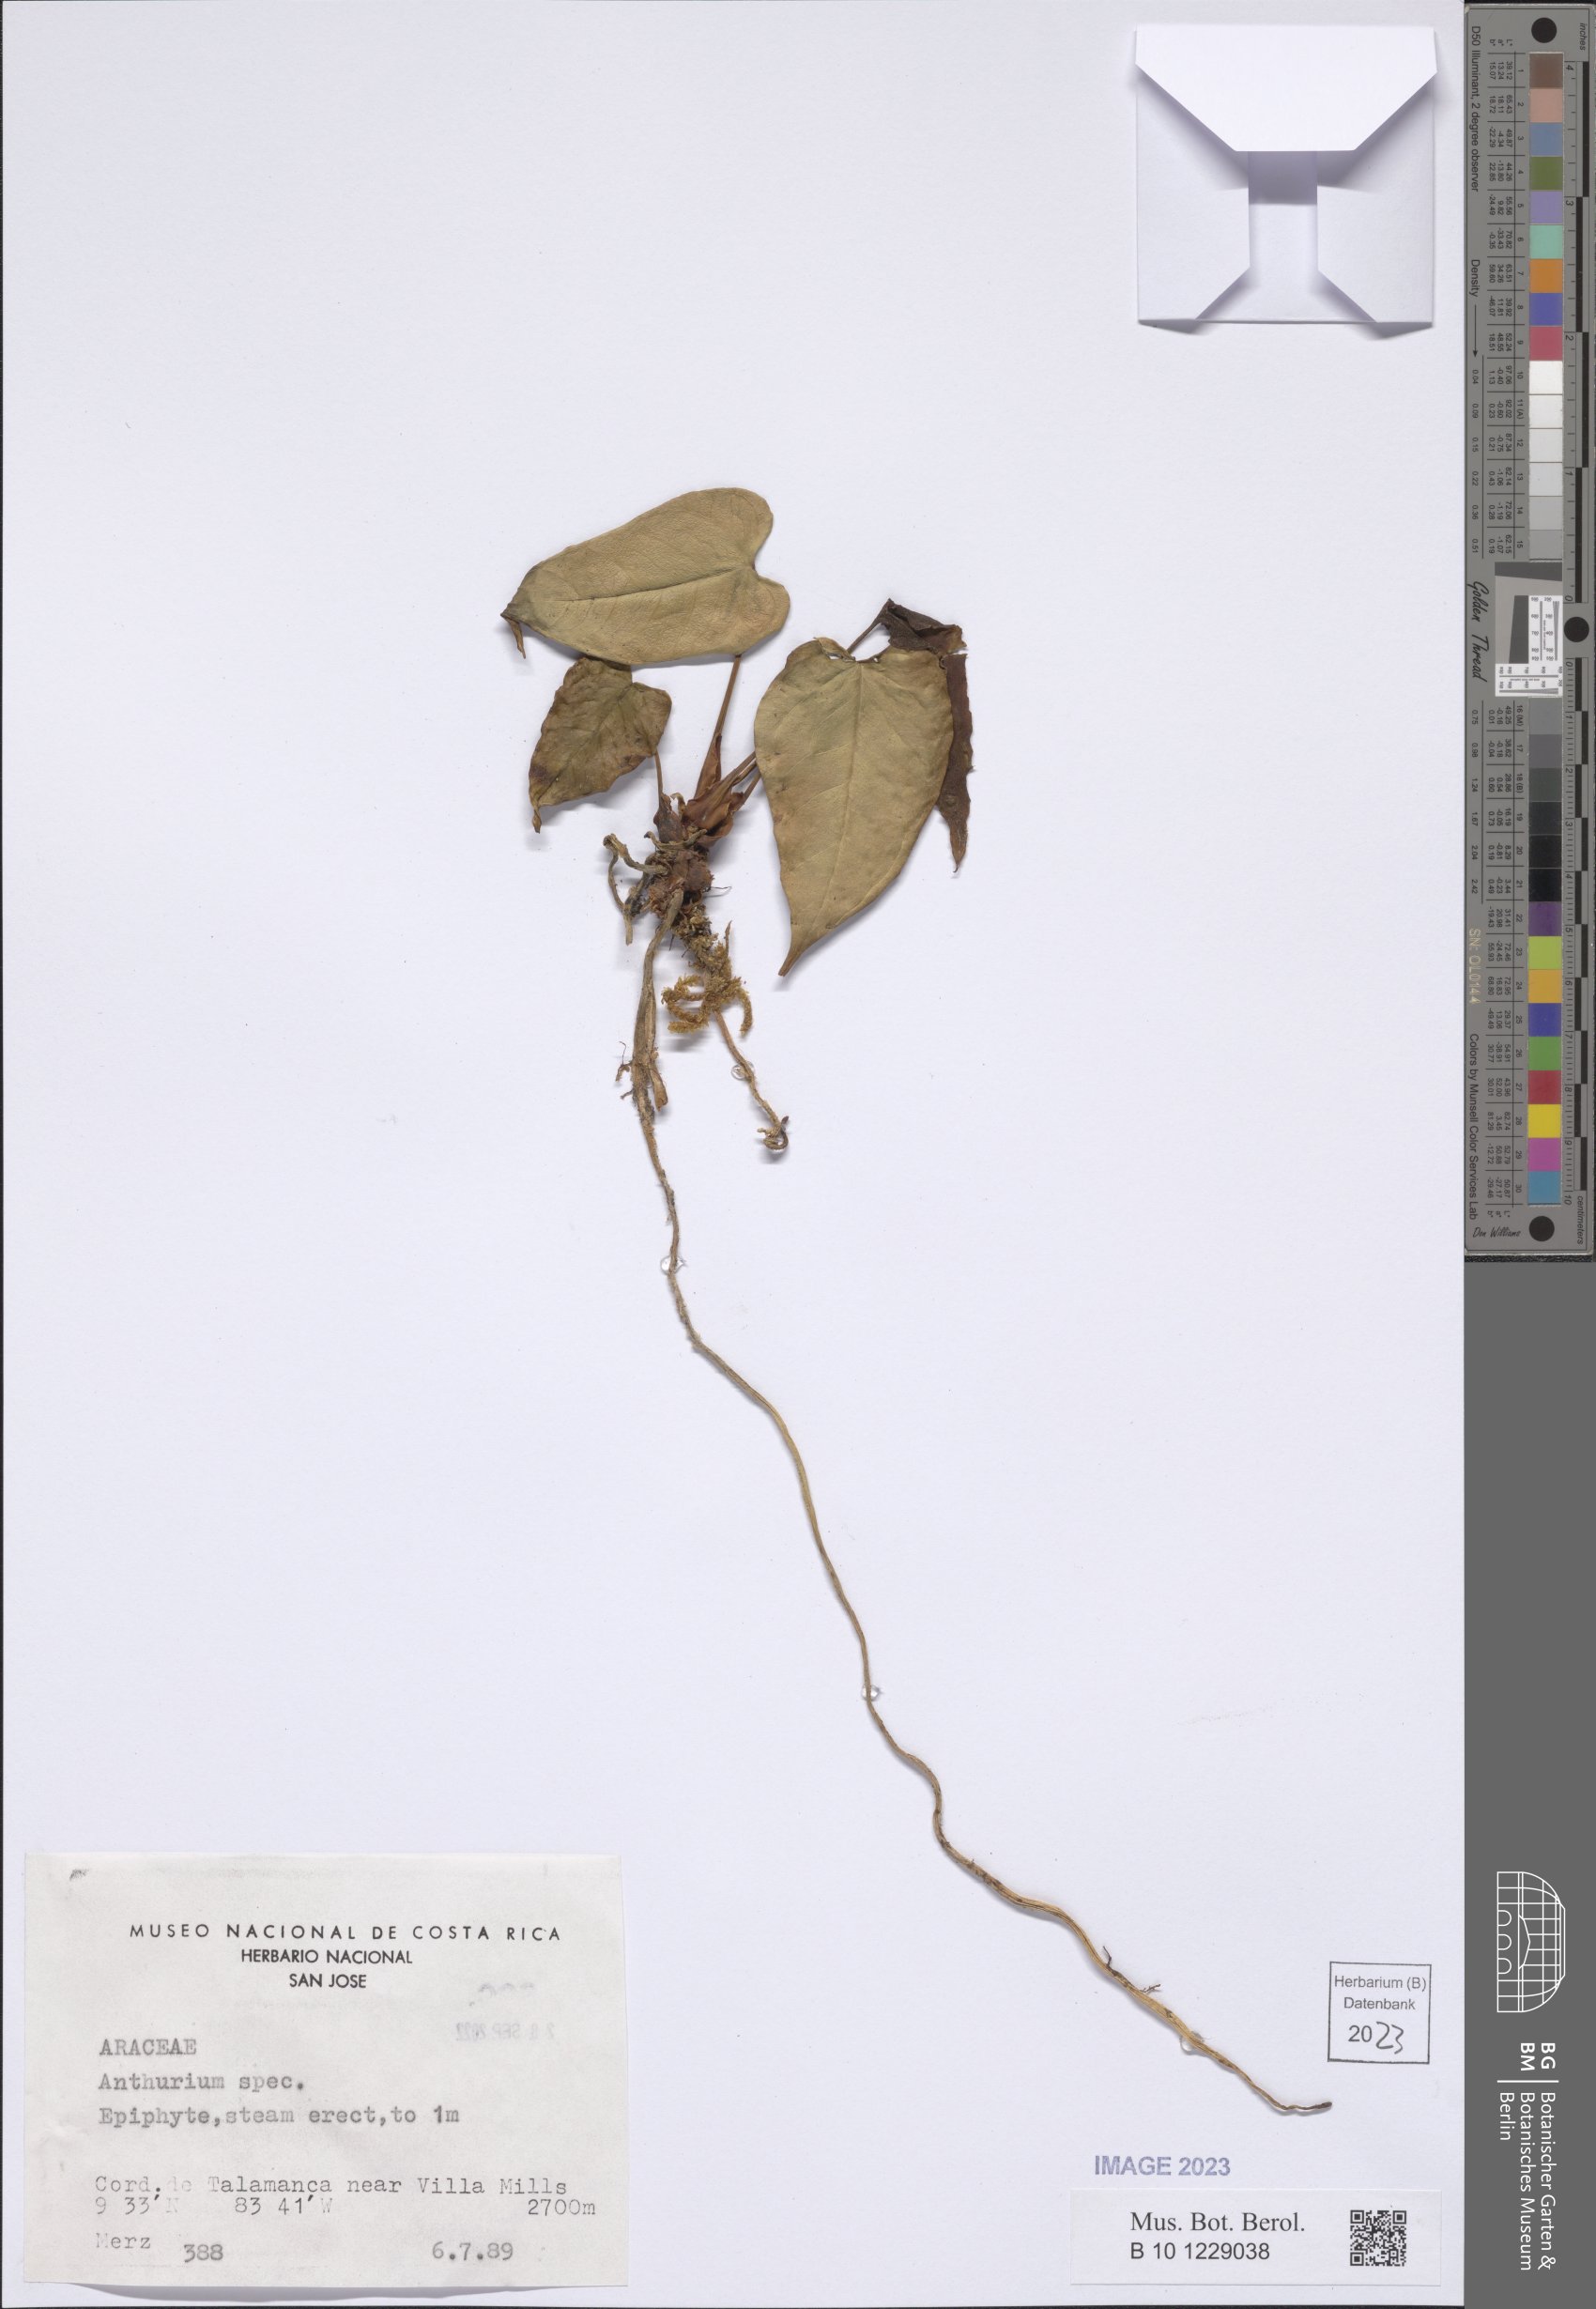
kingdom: Plantae
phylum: Tracheophyta
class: Liliopsida
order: Alismatales
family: Araceae
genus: Anthurium
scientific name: Anthurium
